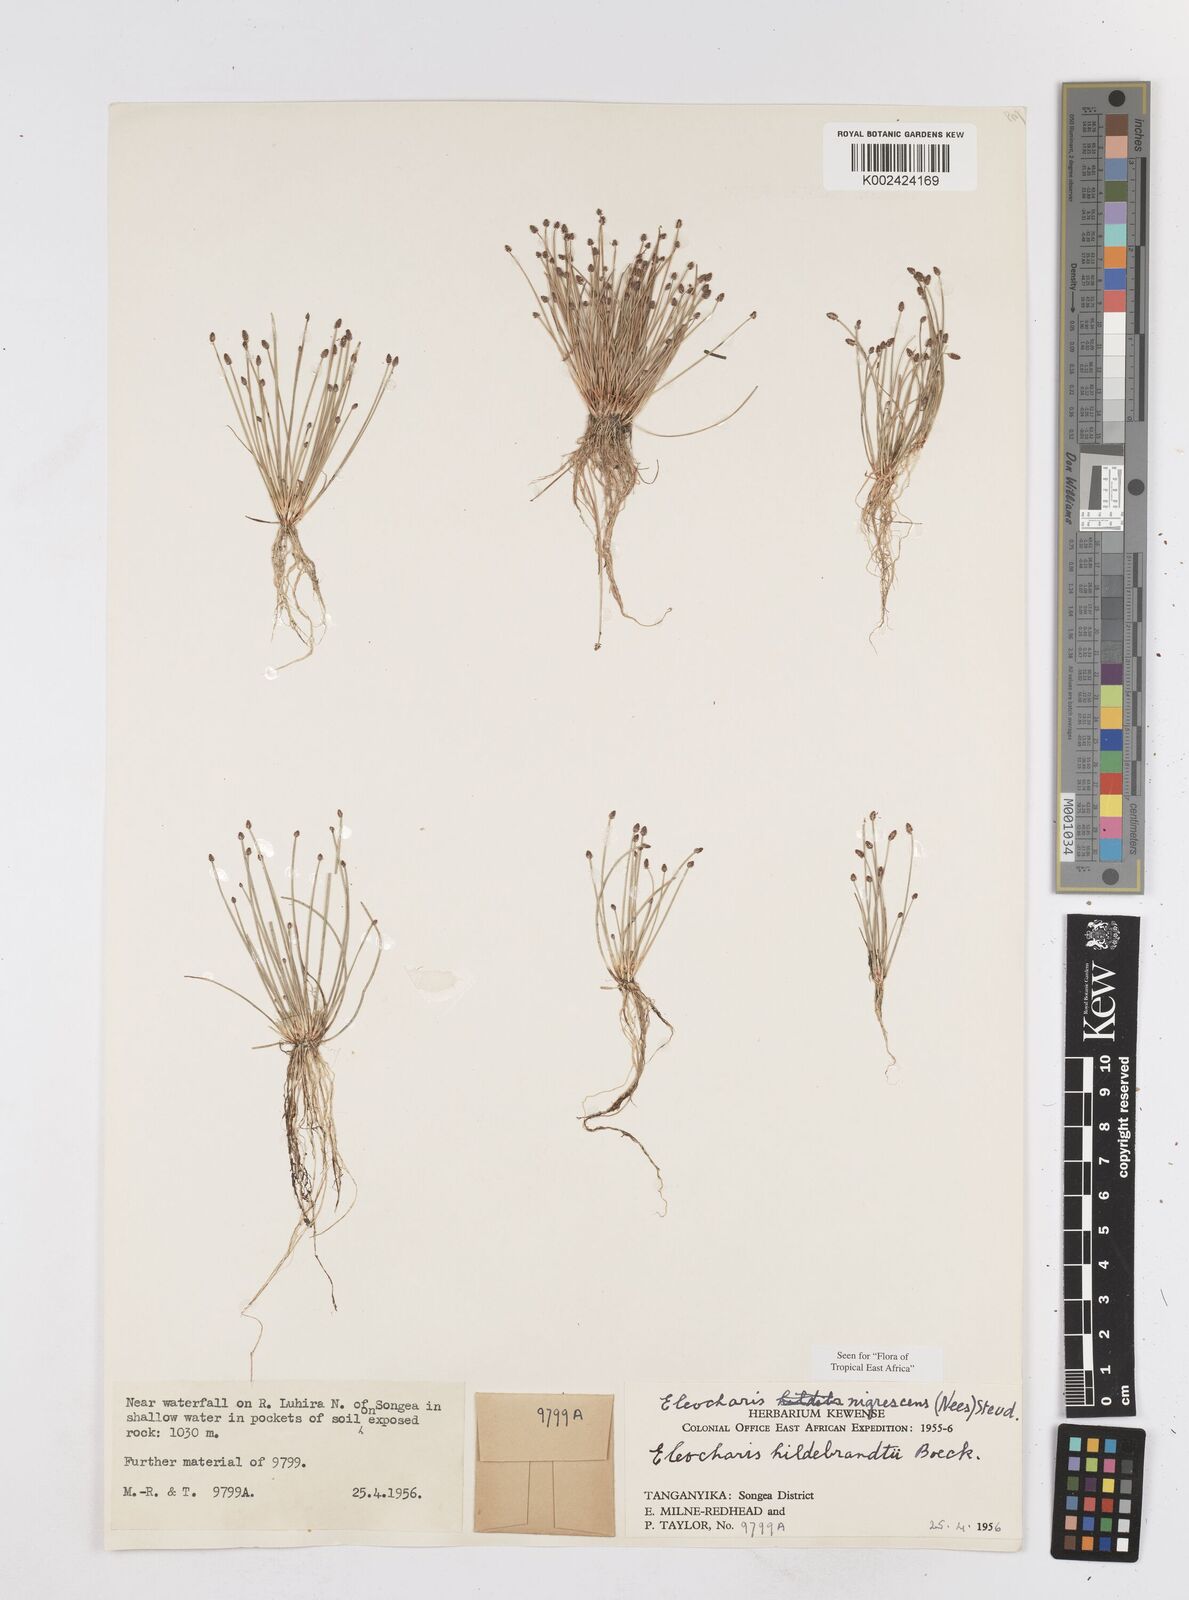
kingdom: Plantae
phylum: Tracheophyta
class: Liliopsida
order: Poales
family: Cyperaceae
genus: Eleocharis
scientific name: Eleocharis nigrescens
